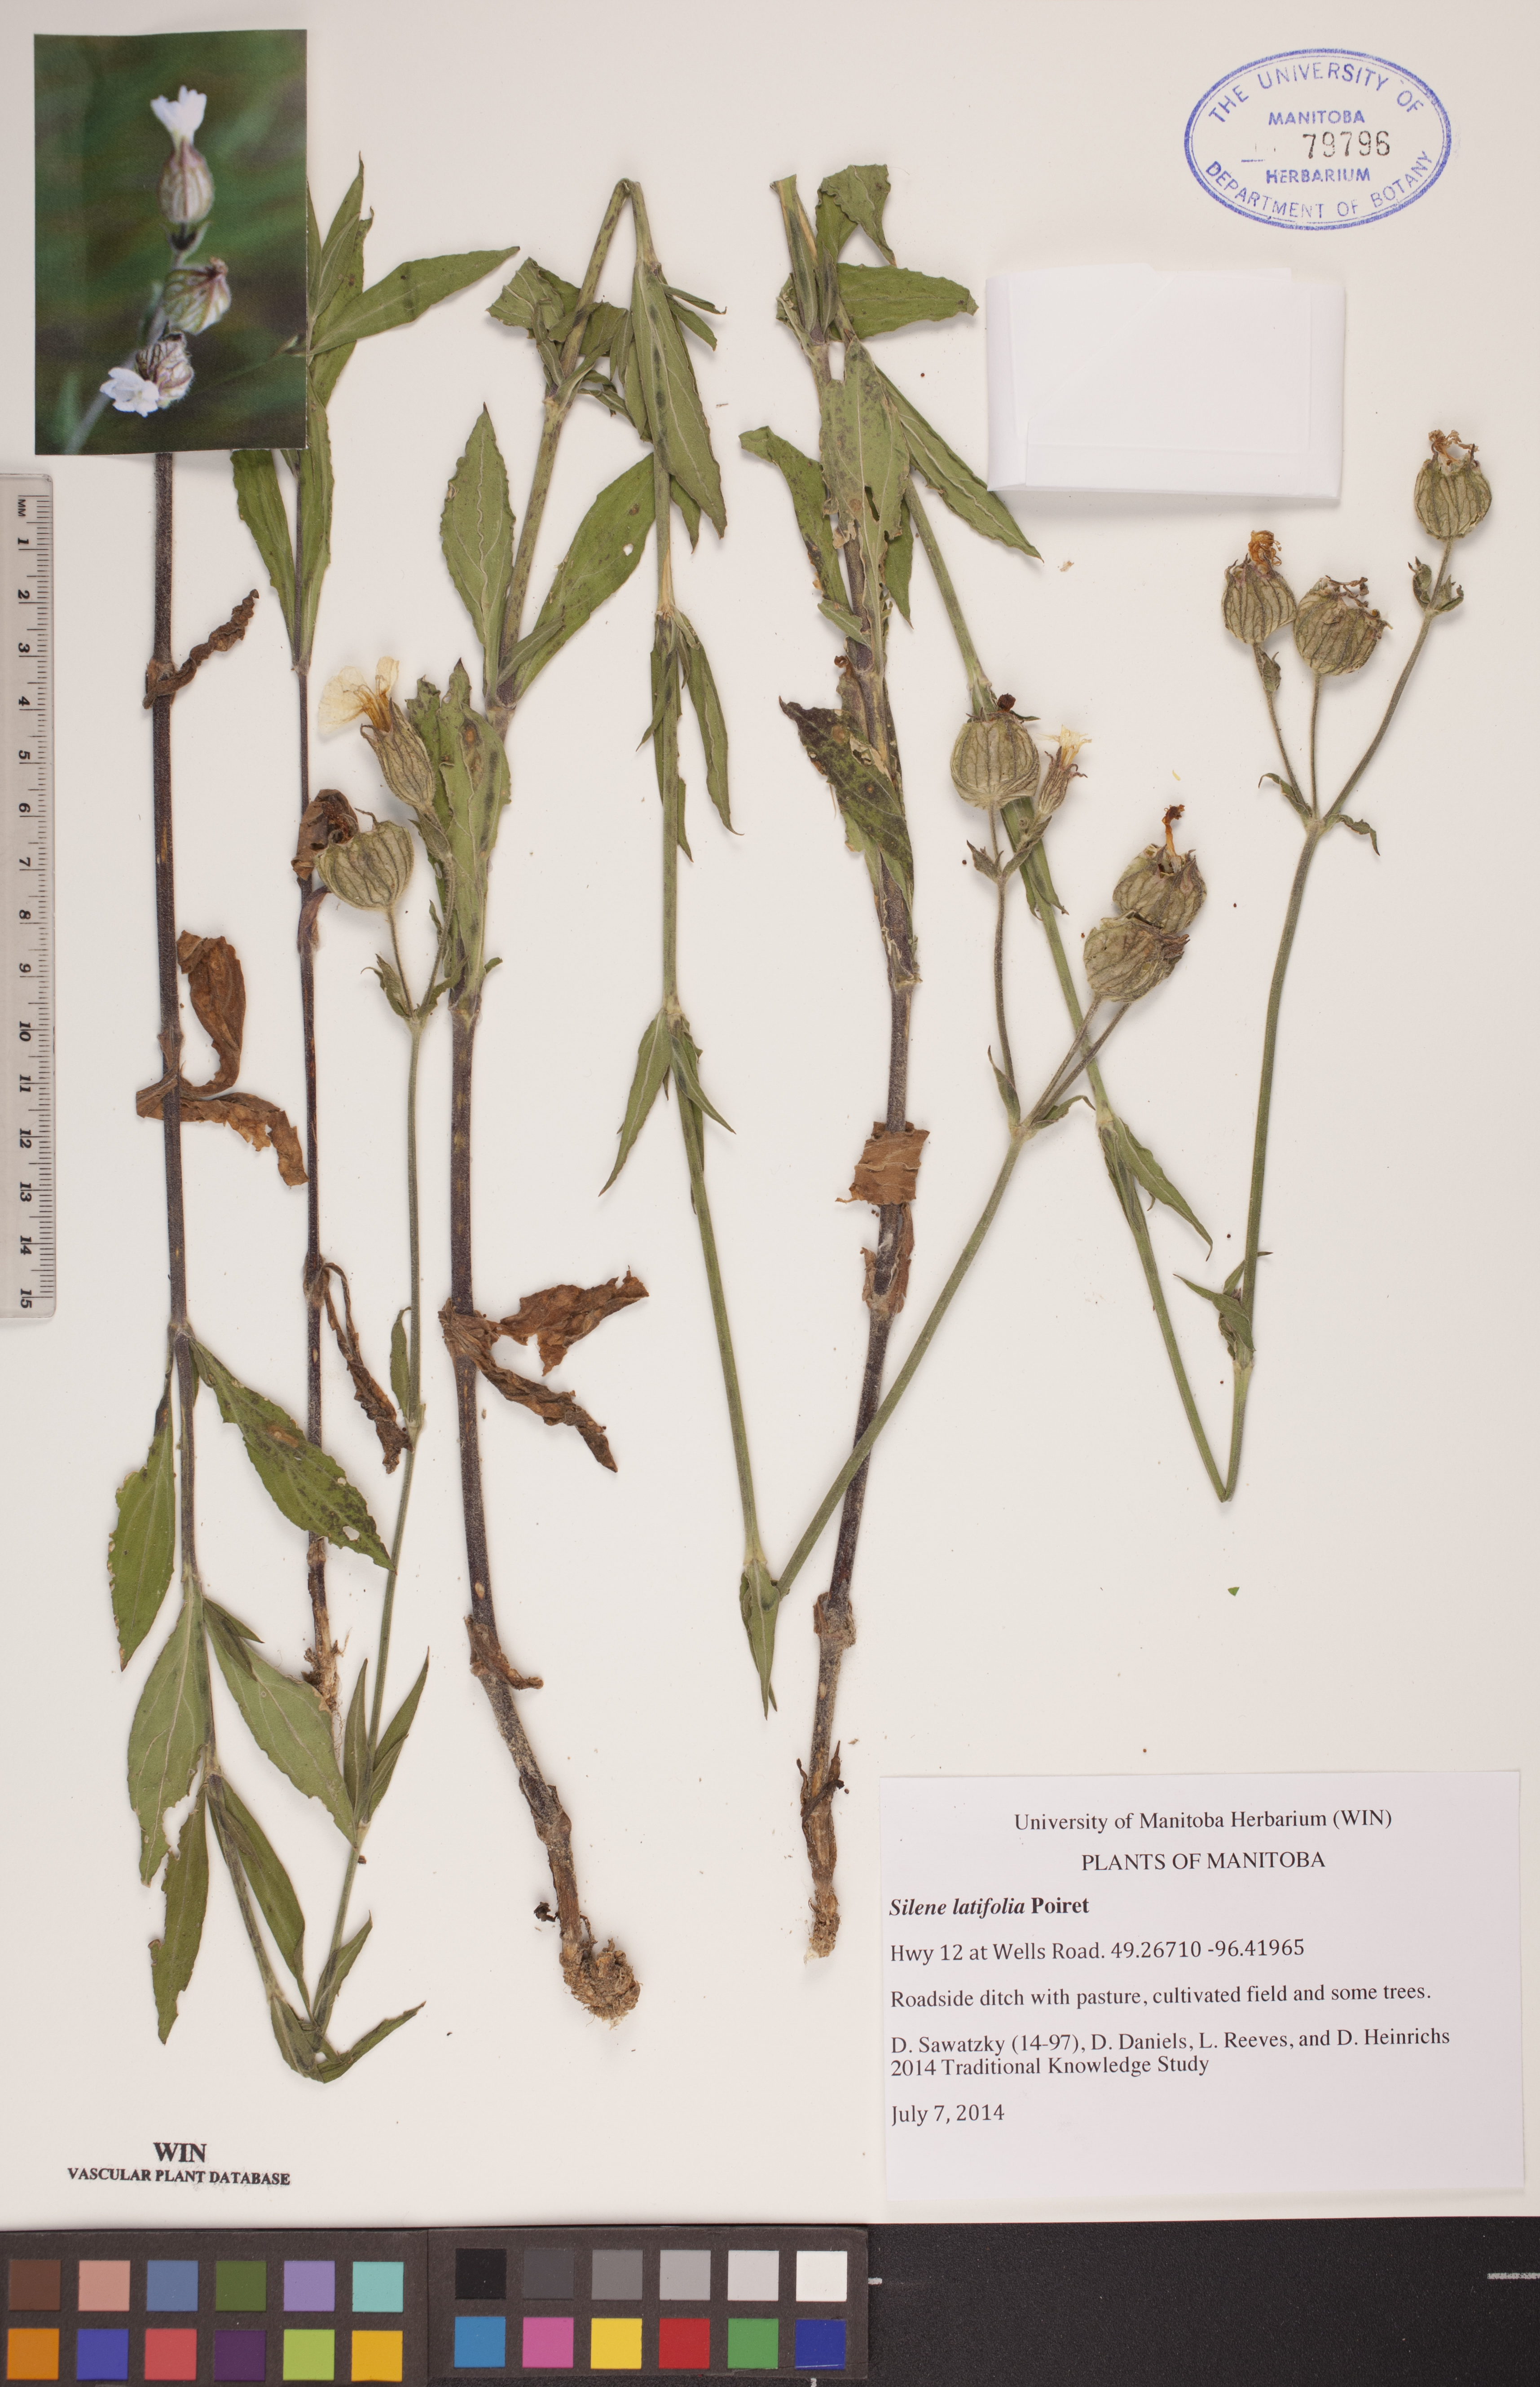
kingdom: Plantae
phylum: Tracheophyta
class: Magnoliopsida
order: Caryophyllales
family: Caryophyllaceae
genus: Silene
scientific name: Silene latifolia
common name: White campion
